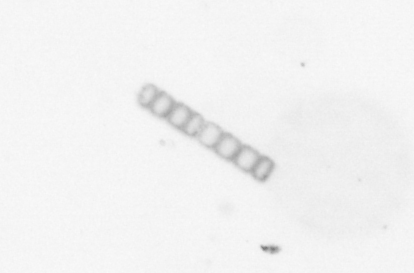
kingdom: Chromista
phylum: Ochrophyta
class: Bacillariophyceae
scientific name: Bacillariophyceae
